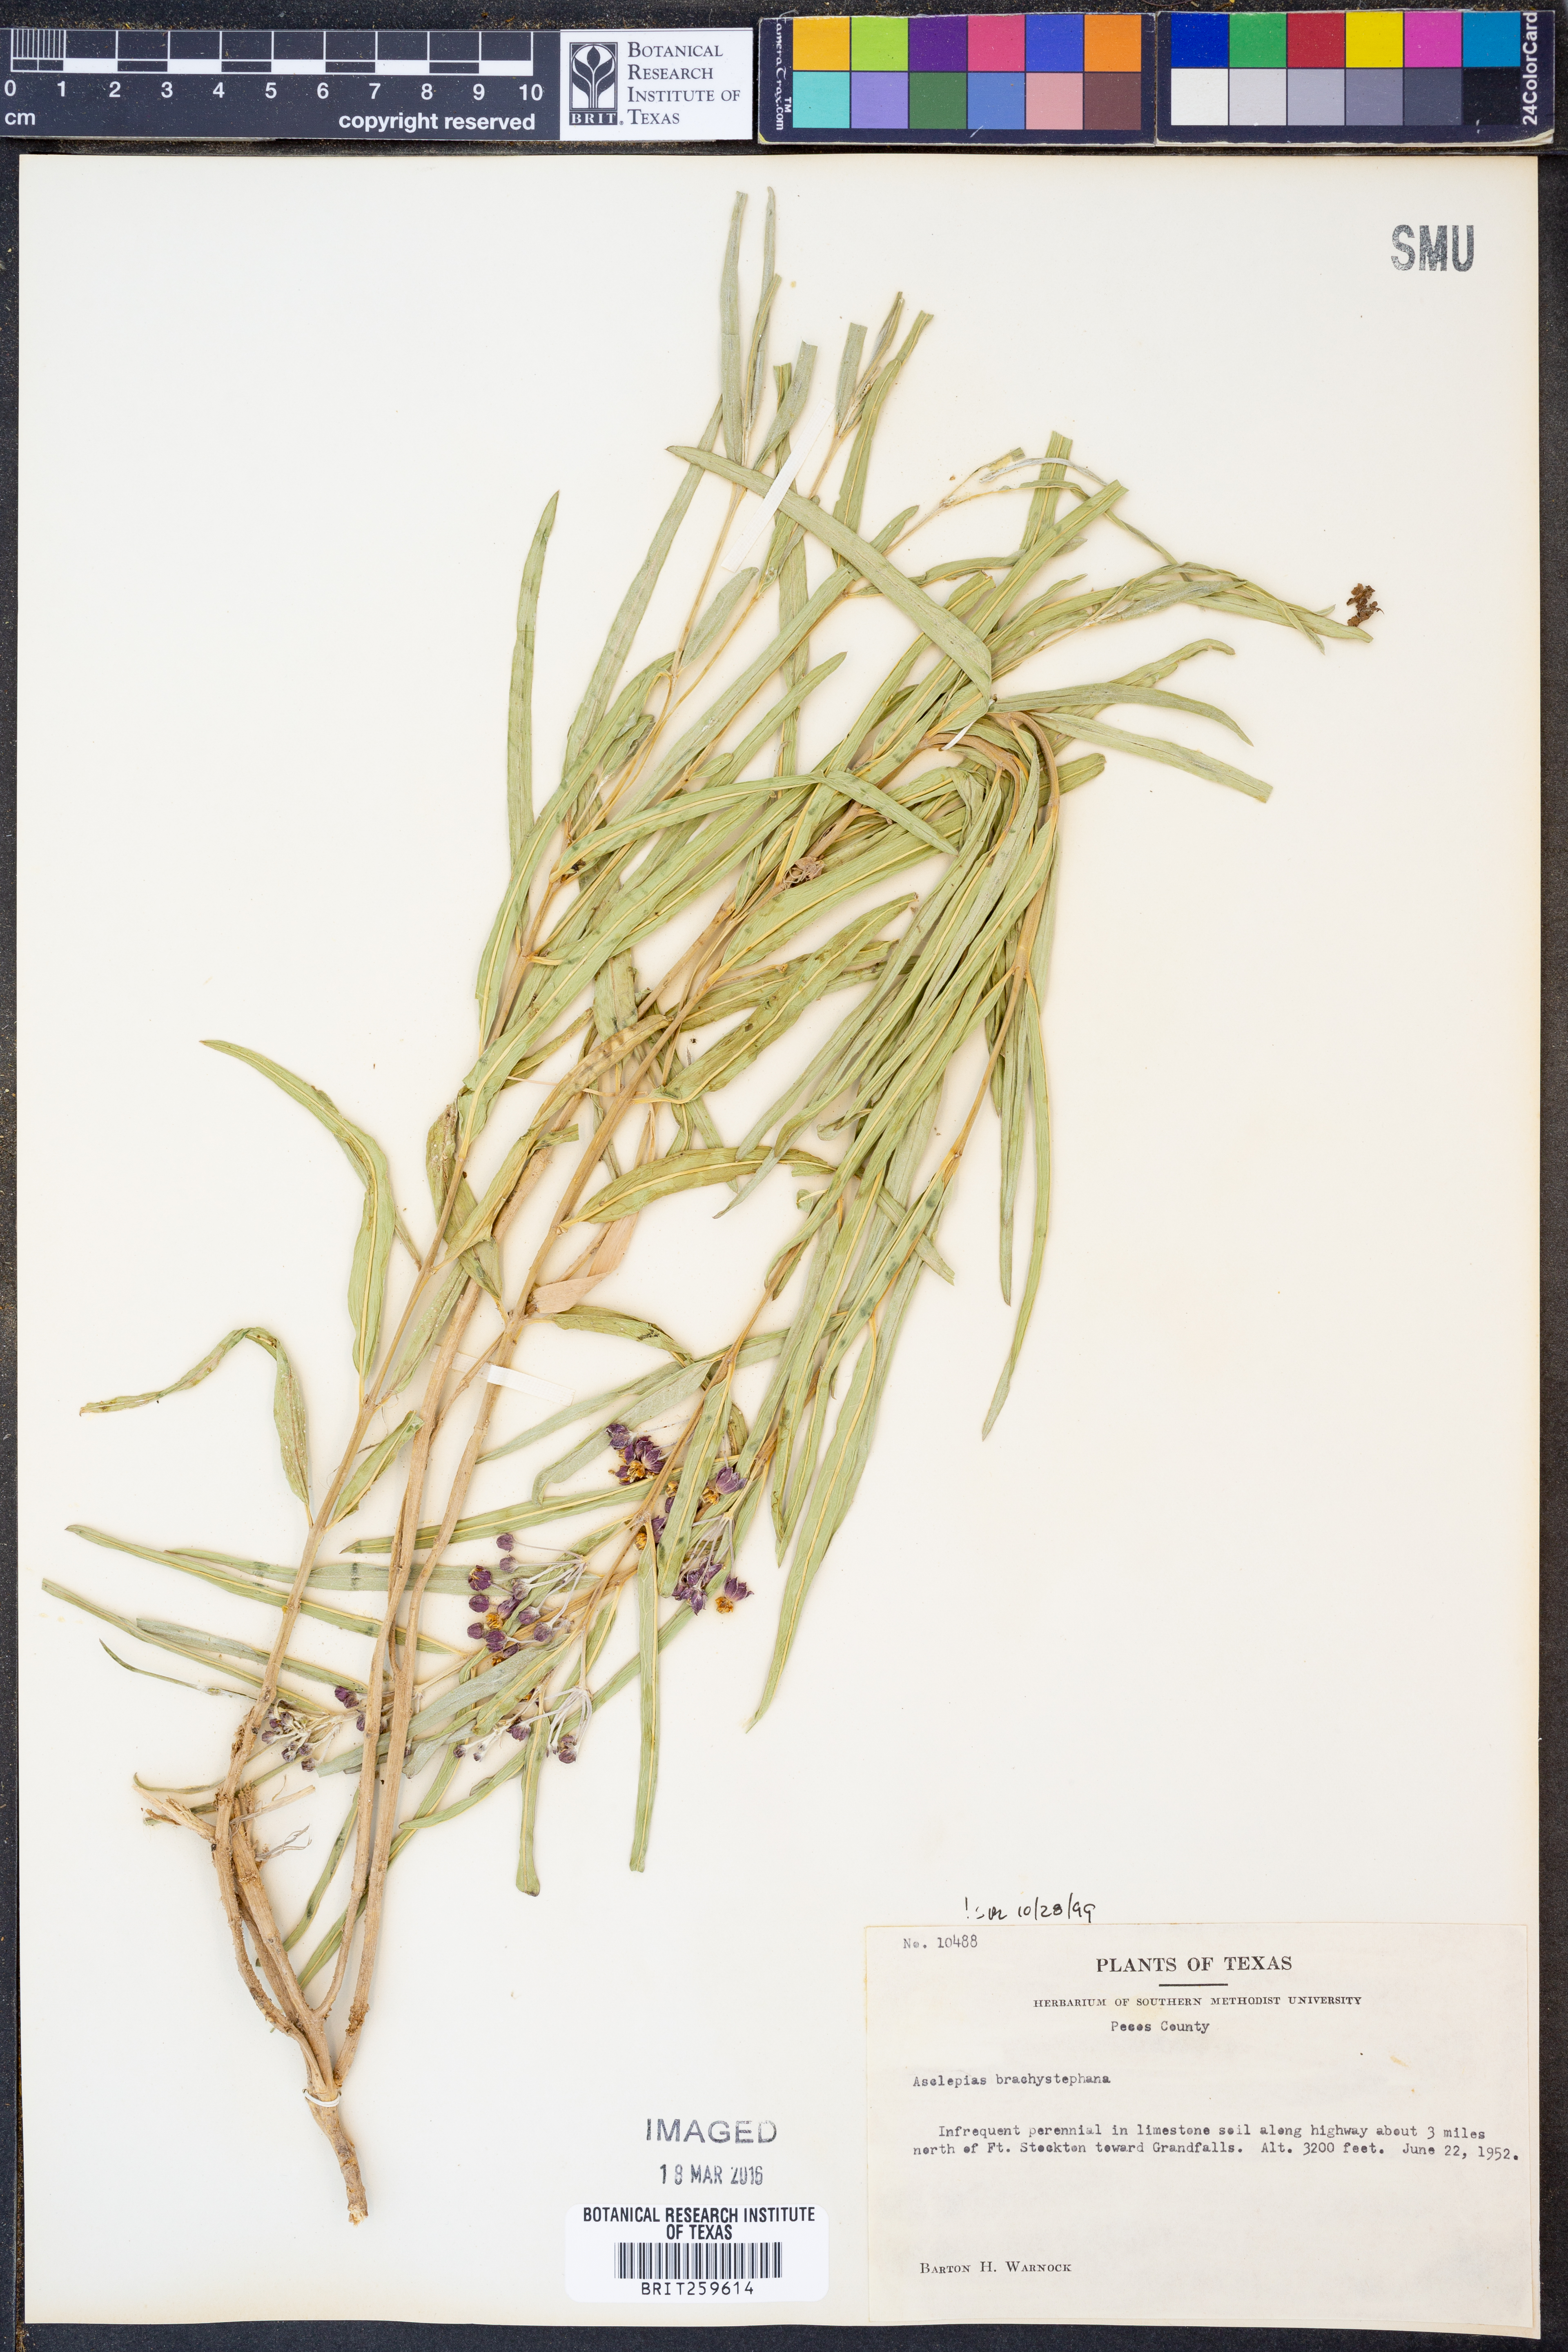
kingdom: Plantae
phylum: Tracheophyta
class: Magnoliopsida
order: Gentianales
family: Apocynaceae
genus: Asclepias
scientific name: Asclepias brachystephana
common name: Shortcrown milkweed
